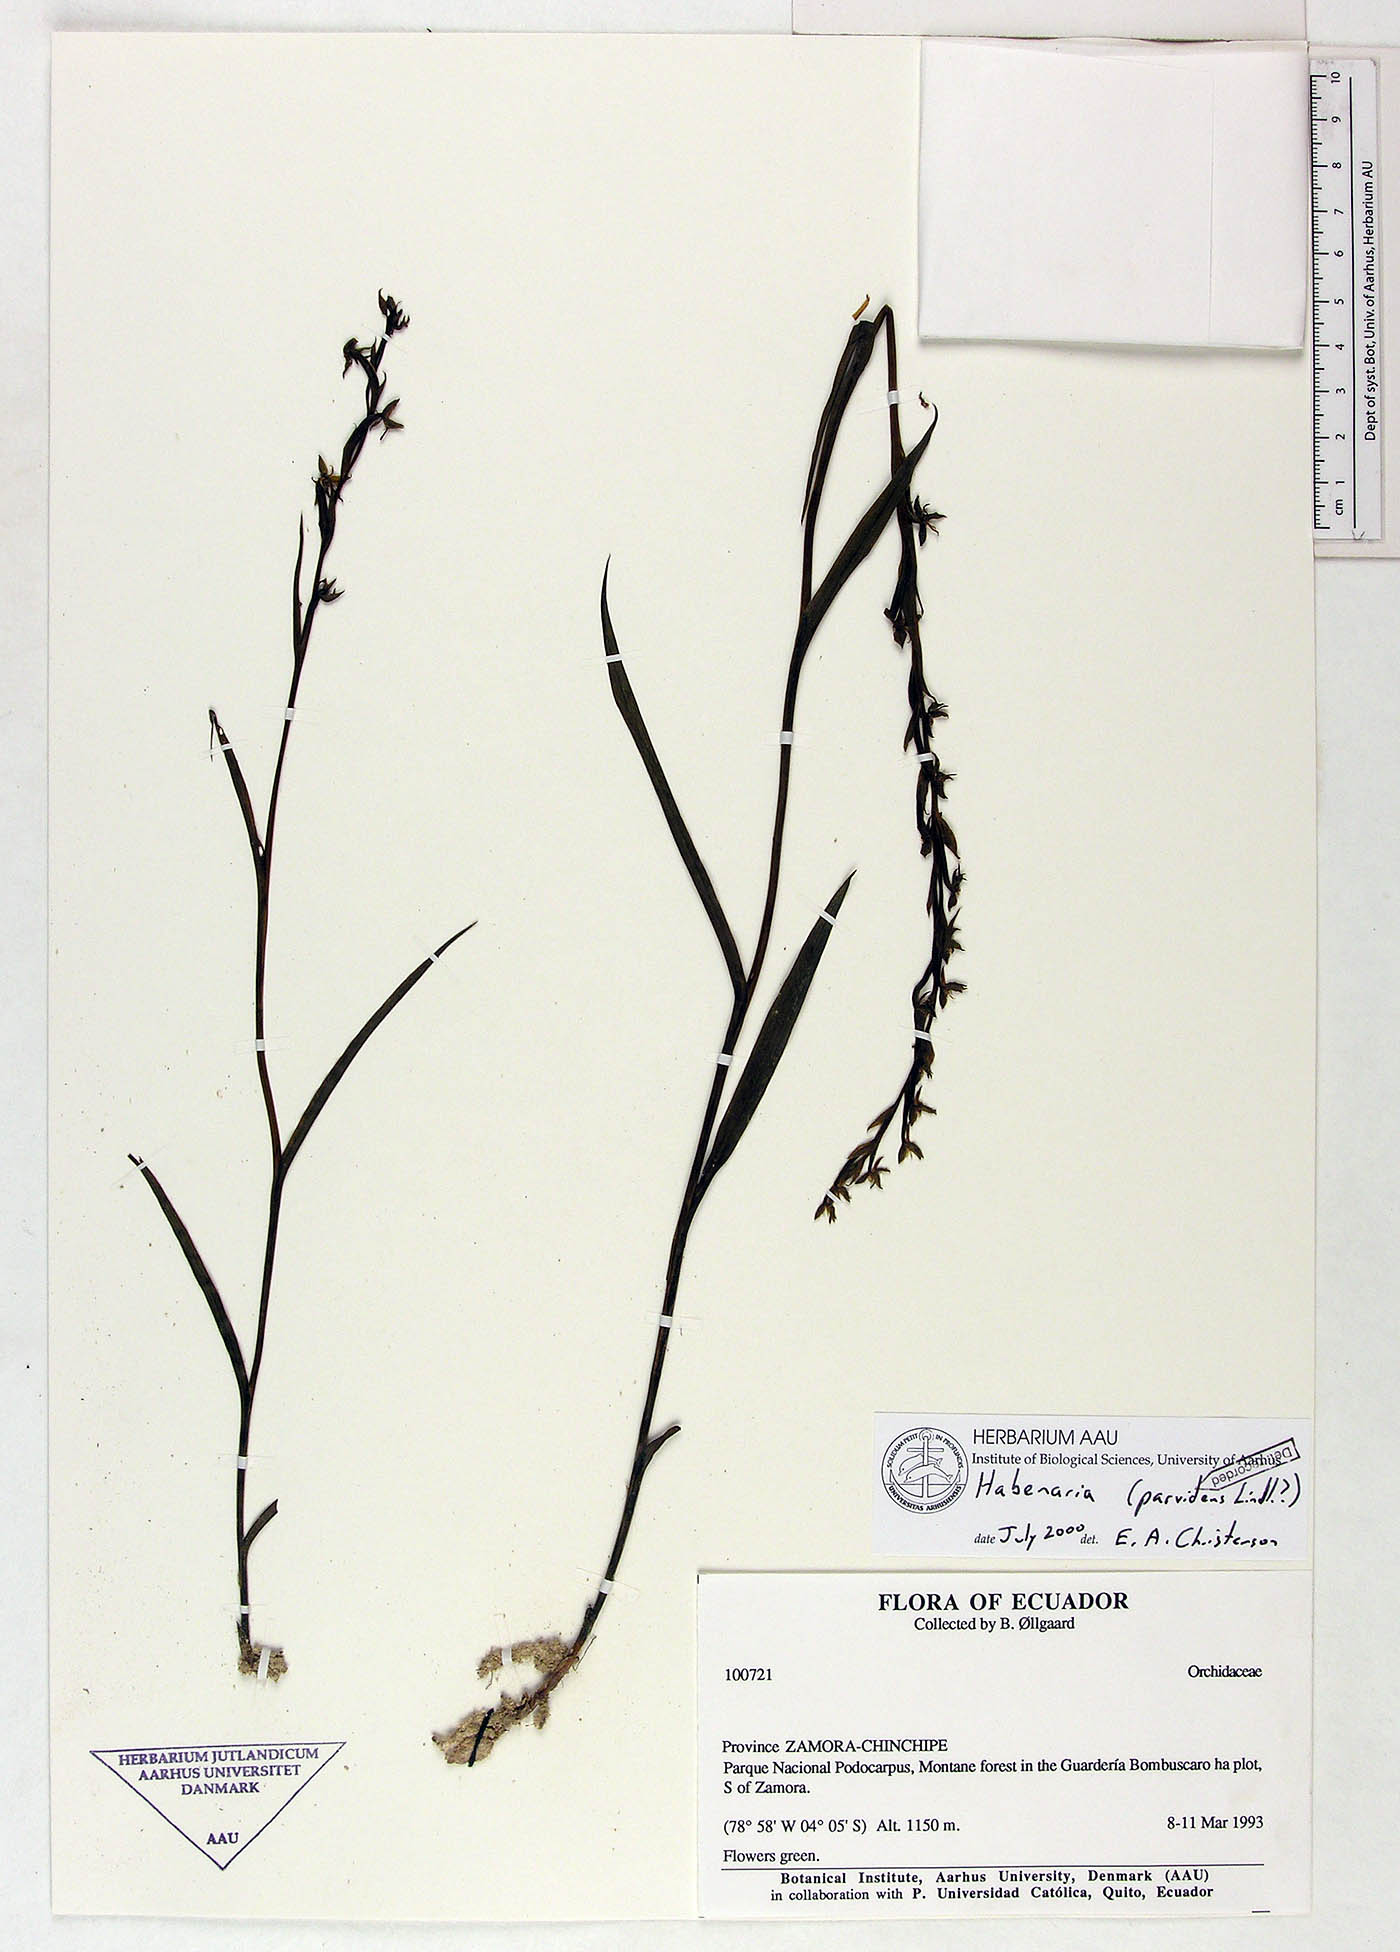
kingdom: Plantae
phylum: Tracheophyta
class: Liliopsida
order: Asparagales
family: Orchidaceae
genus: Habenaria
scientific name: Habenaria parvidens
